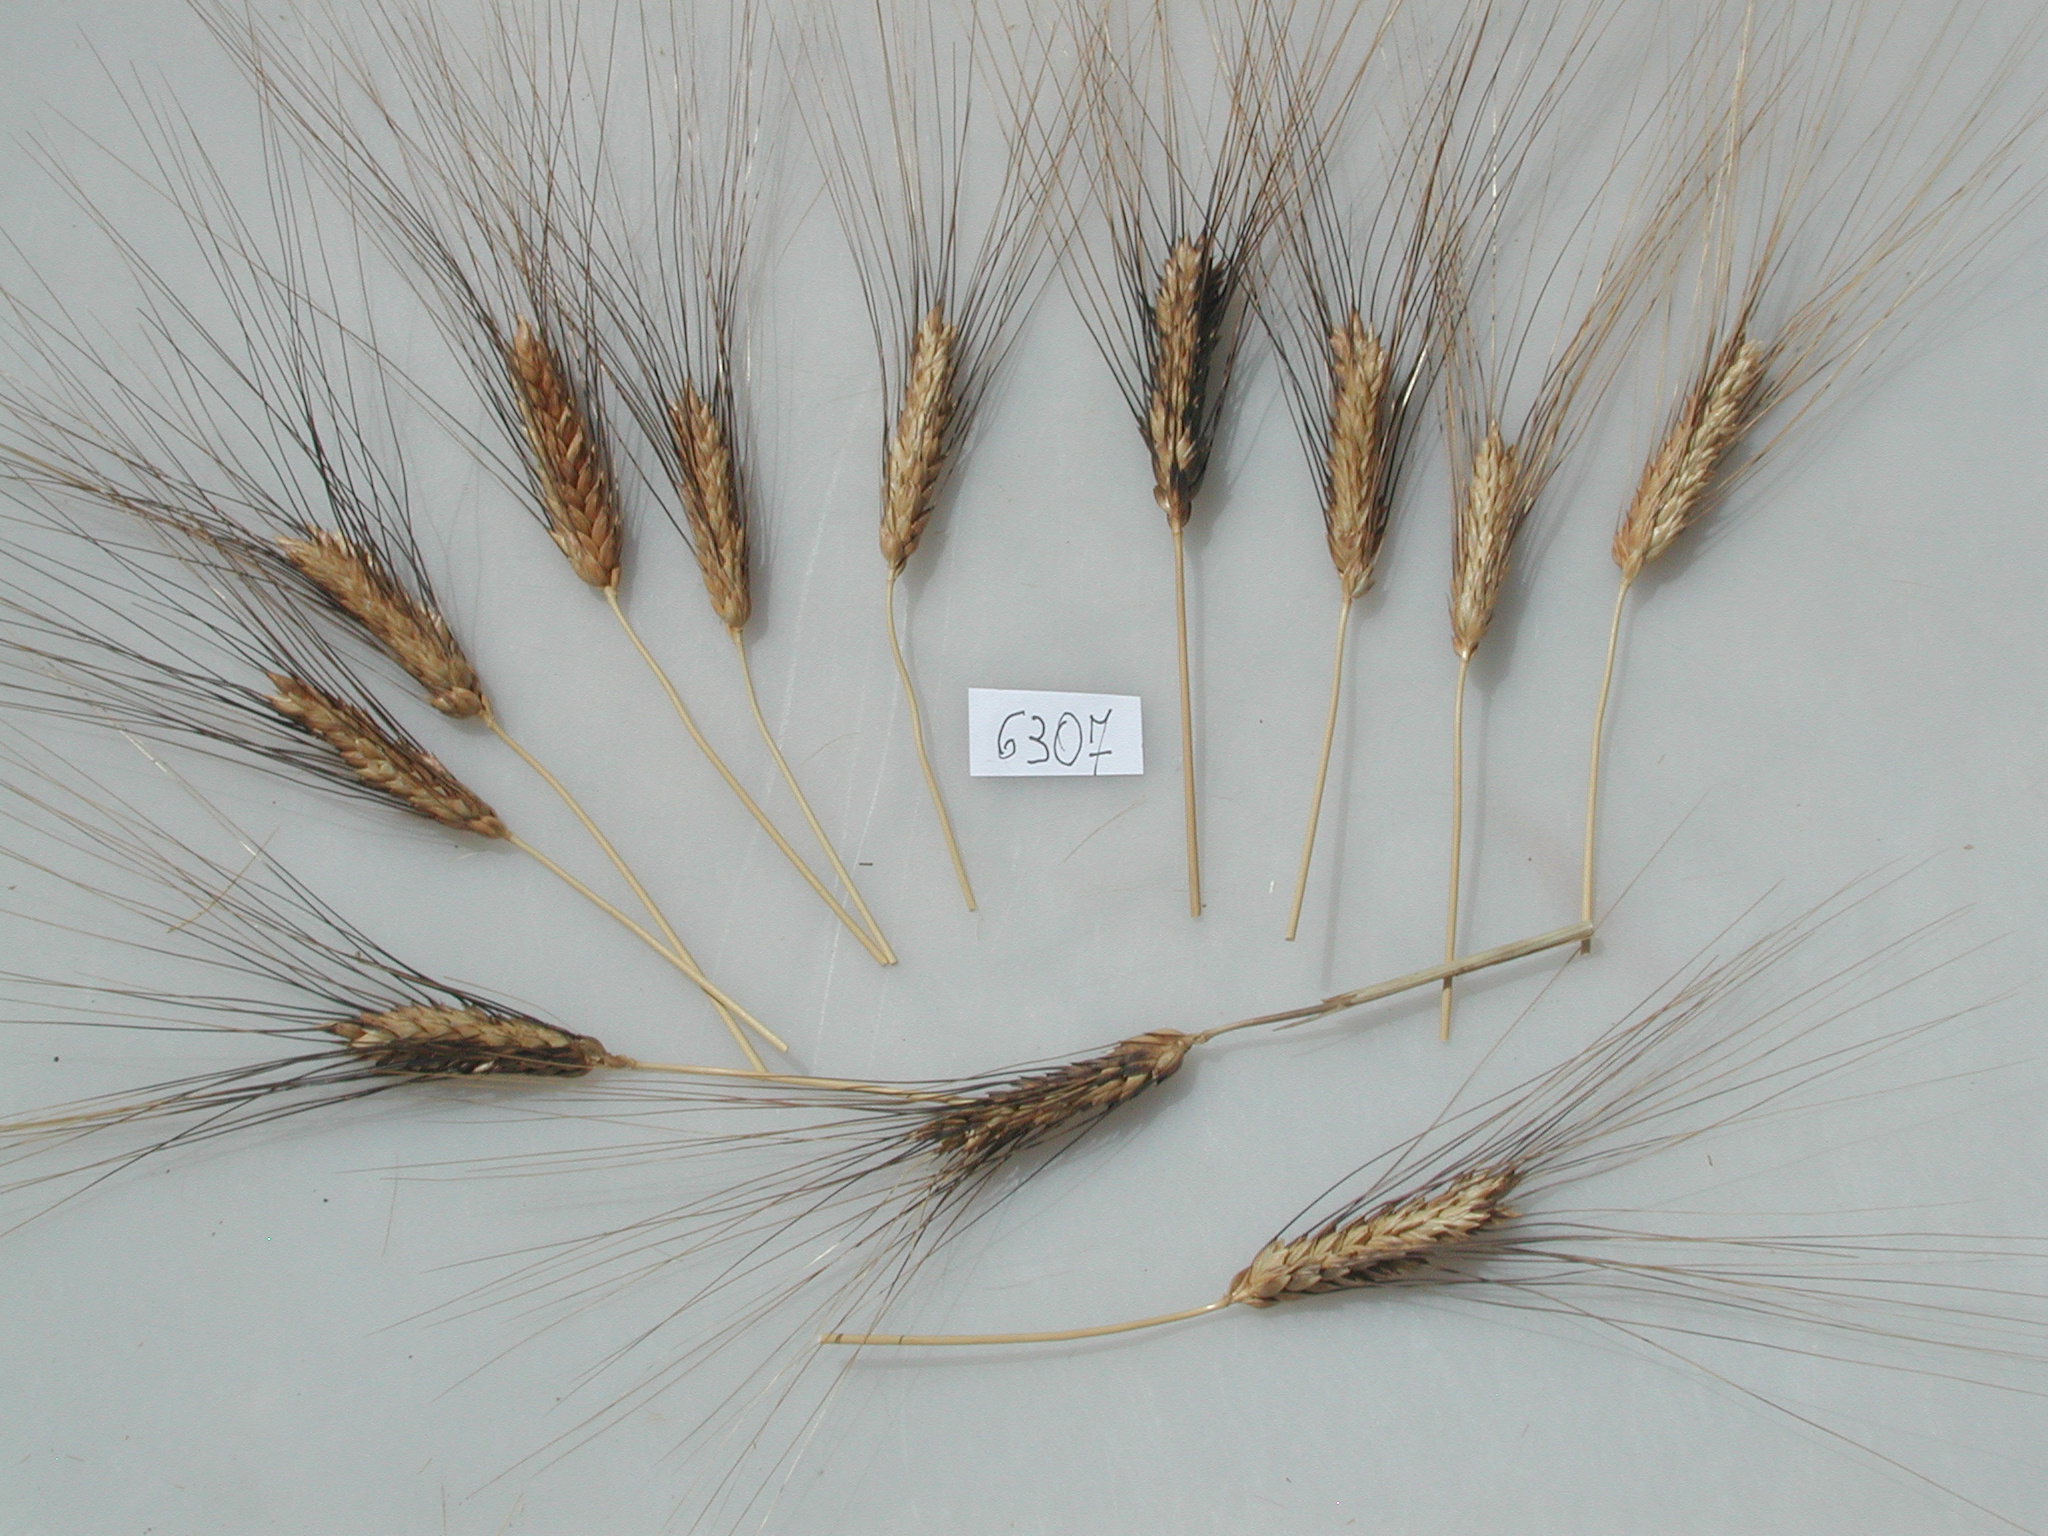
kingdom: Plantae
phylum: Tracheophyta
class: Liliopsida
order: Poales
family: Poaceae
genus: Triticum
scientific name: Triticum aestivum
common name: Wheat
